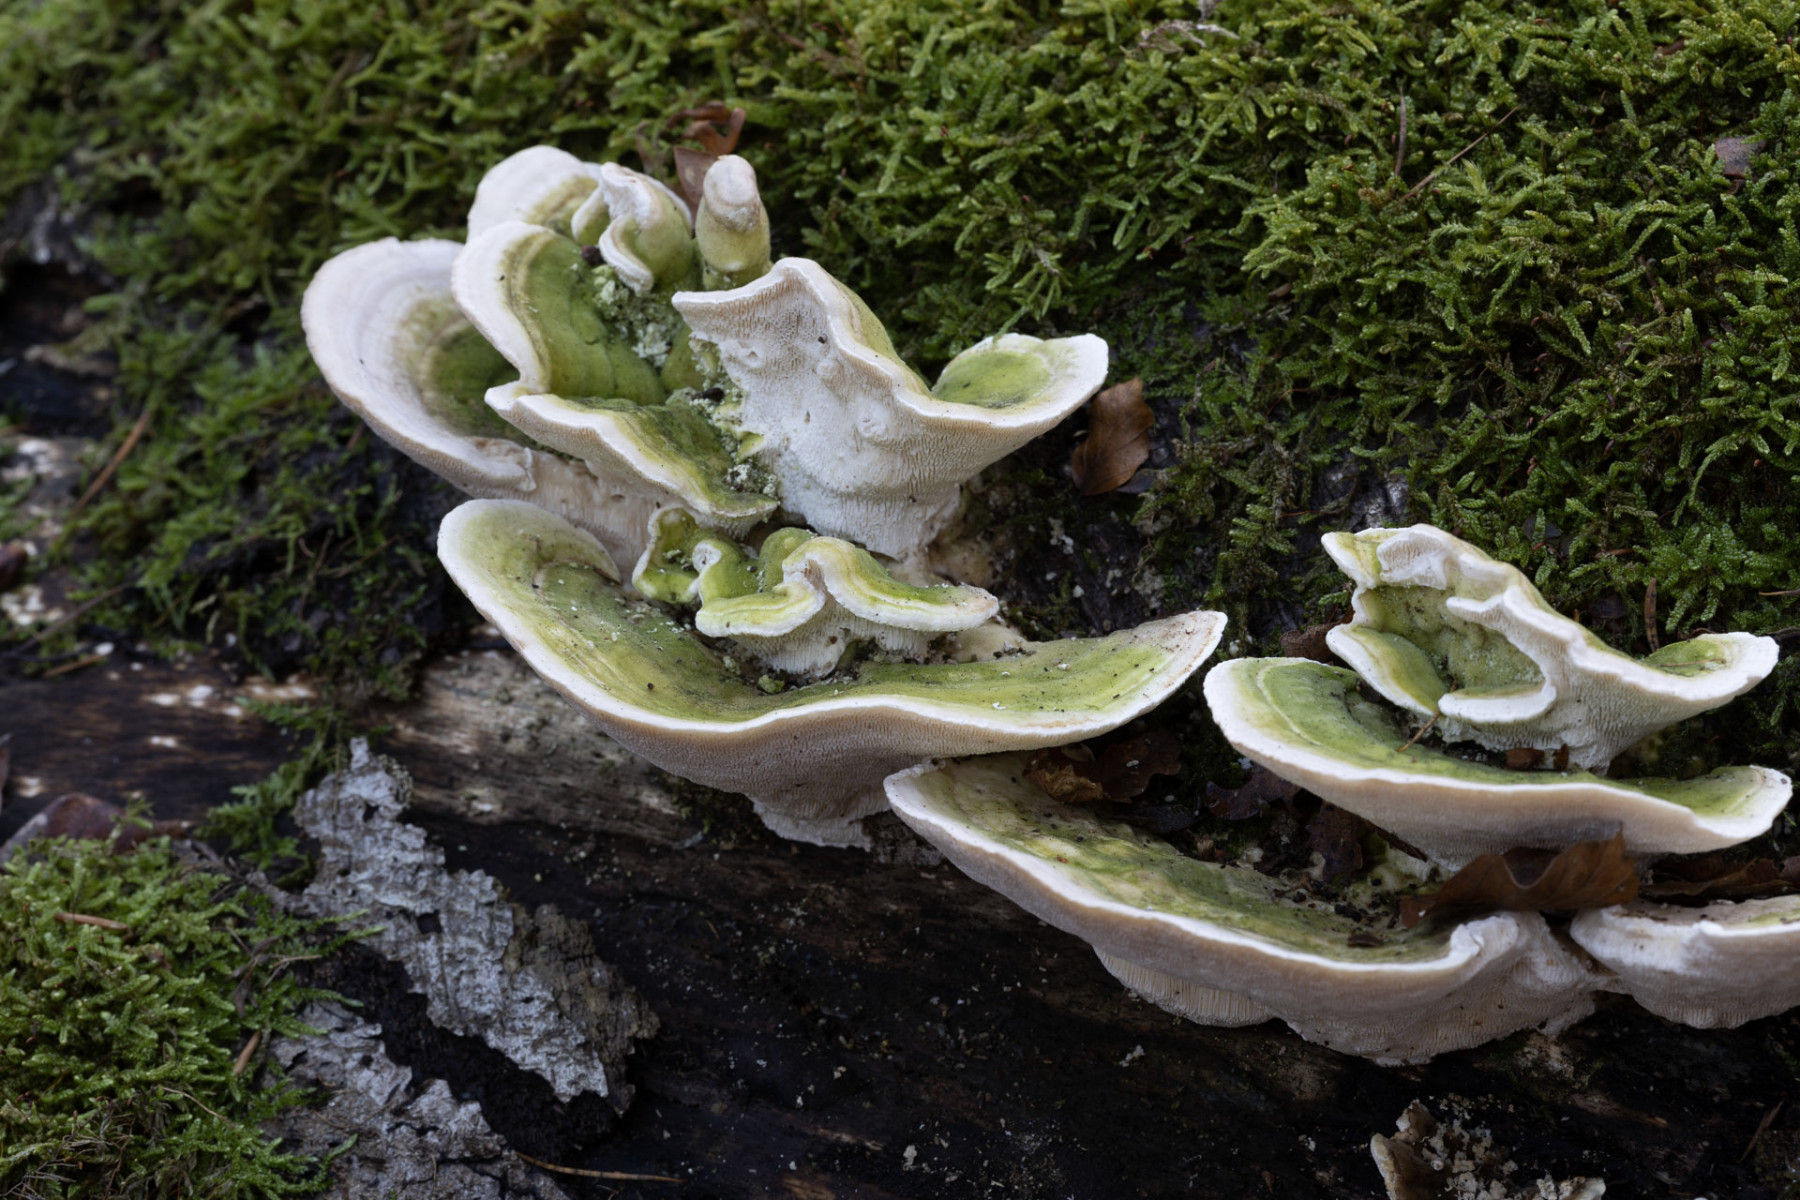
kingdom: Fungi
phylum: Basidiomycota
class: Agaricomycetes
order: Polyporales
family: Polyporaceae
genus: Trametes
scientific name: Trametes gibbosa
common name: puklet læderporesvamp
